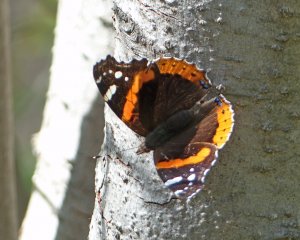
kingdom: Animalia
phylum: Arthropoda
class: Insecta
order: Lepidoptera
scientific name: Lepidoptera
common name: Butterflies
